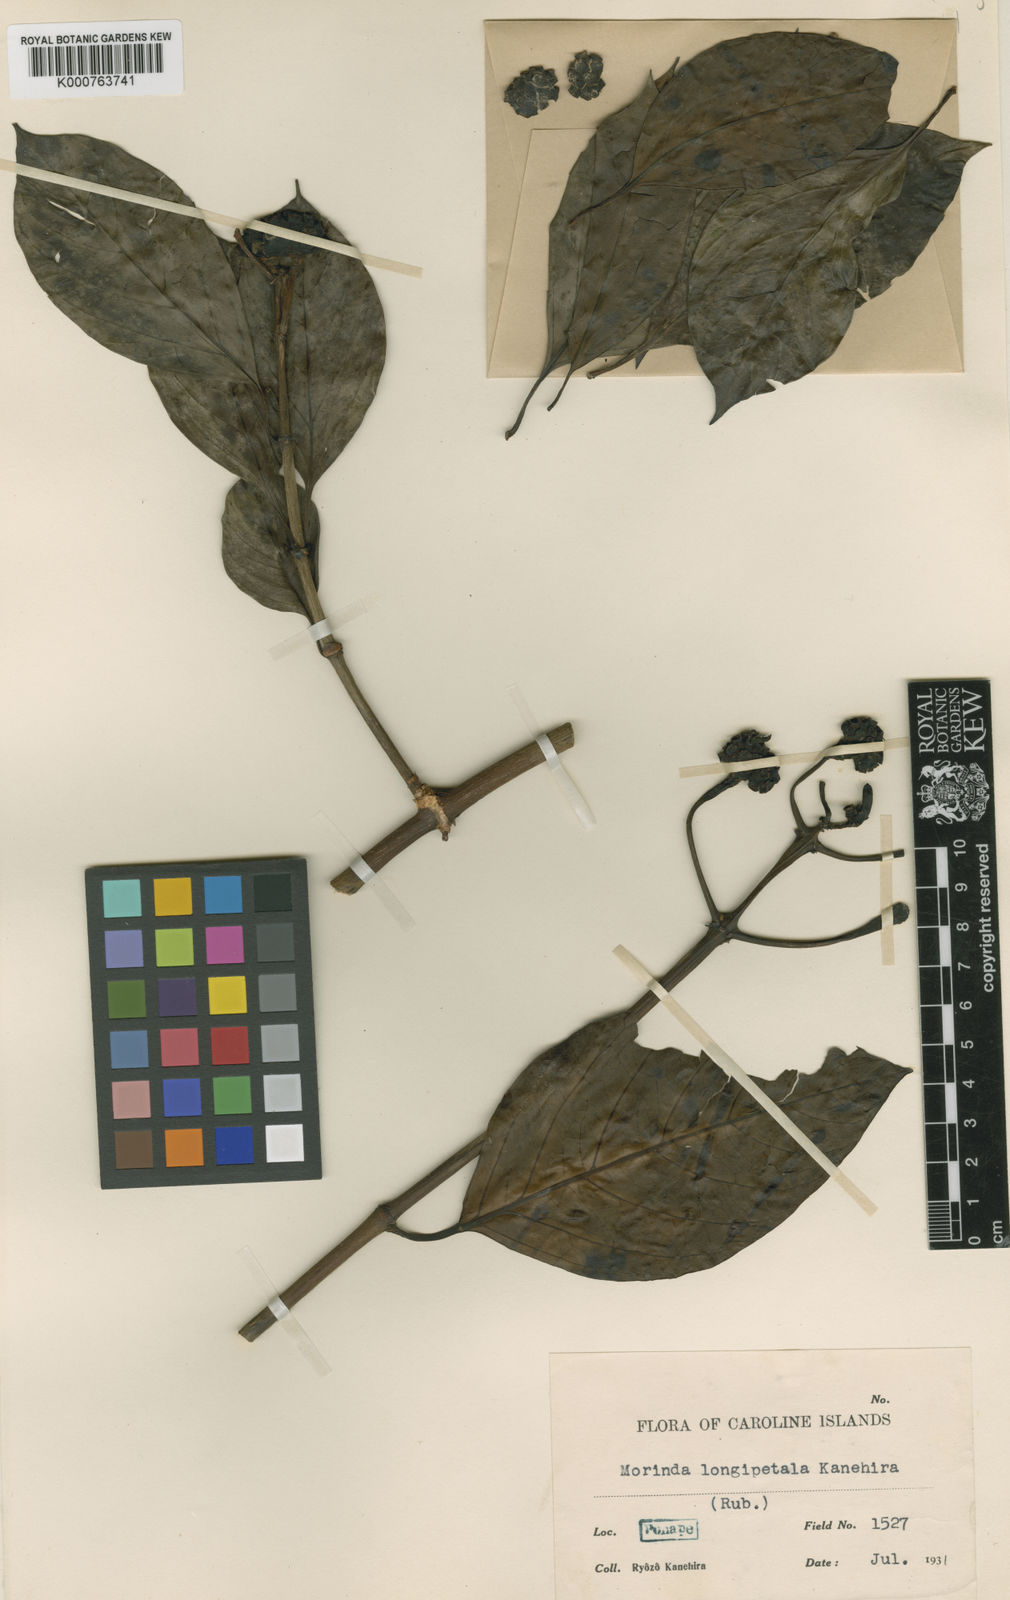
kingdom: Plantae
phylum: Tracheophyta
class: Magnoliopsida
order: Gentianales
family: Rubiaceae
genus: Morinda
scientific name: Morinda
